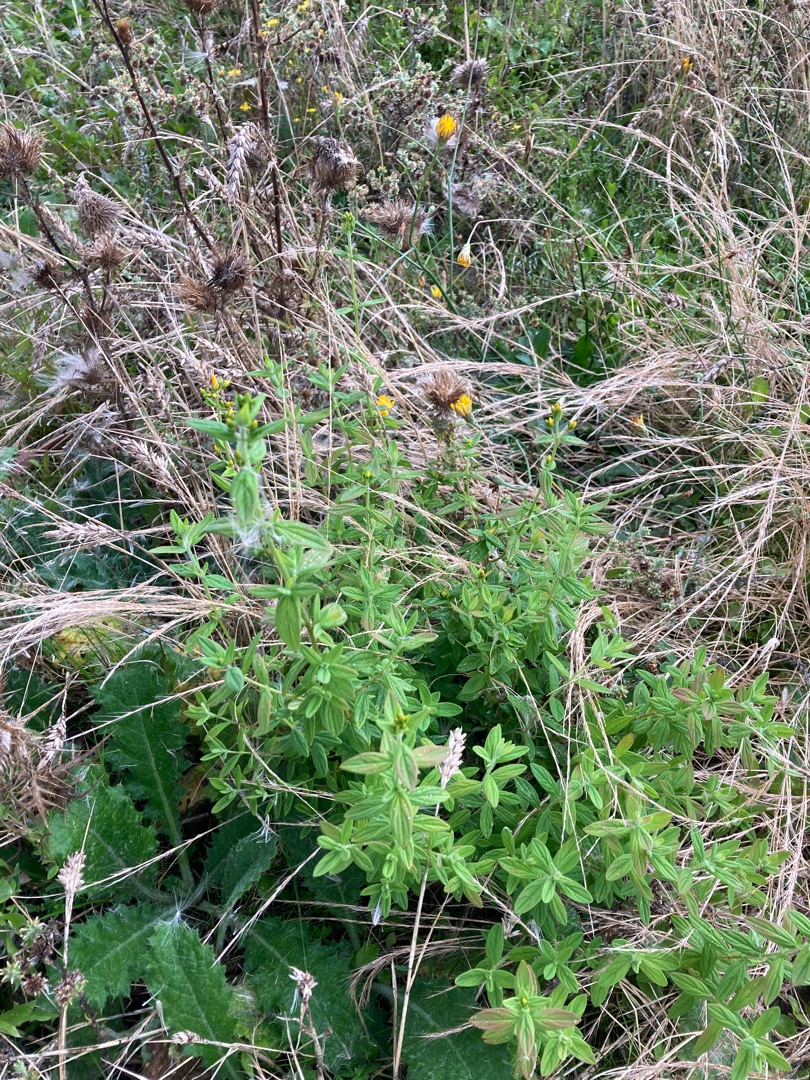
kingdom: Plantae
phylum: Tracheophyta
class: Magnoliopsida
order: Malpighiales
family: Hypericaceae
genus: Hypericum
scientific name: Hypericum hirsutum
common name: Lådden perikon
